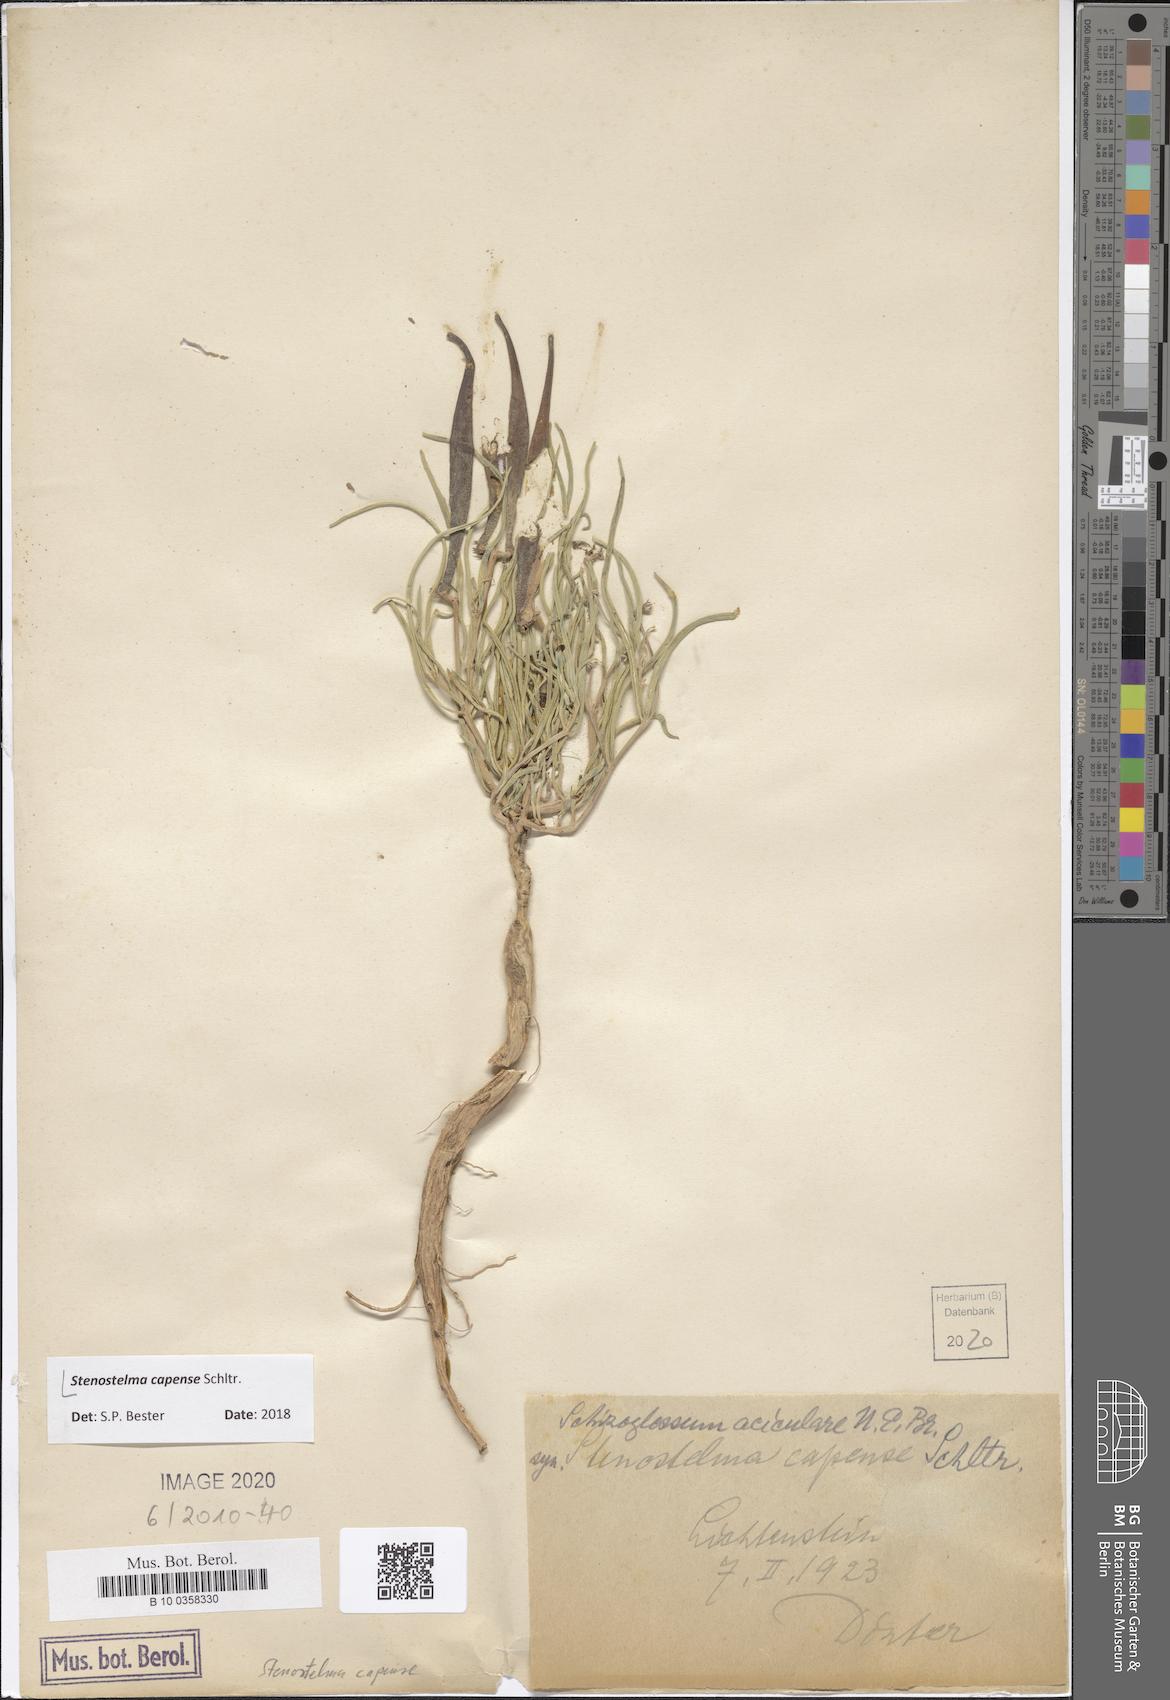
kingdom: Plantae
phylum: Tracheophyta
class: Magnoliopsida
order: Gentianales
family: Apocynaceae
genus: Stenostelma
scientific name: Stenostelma capense
